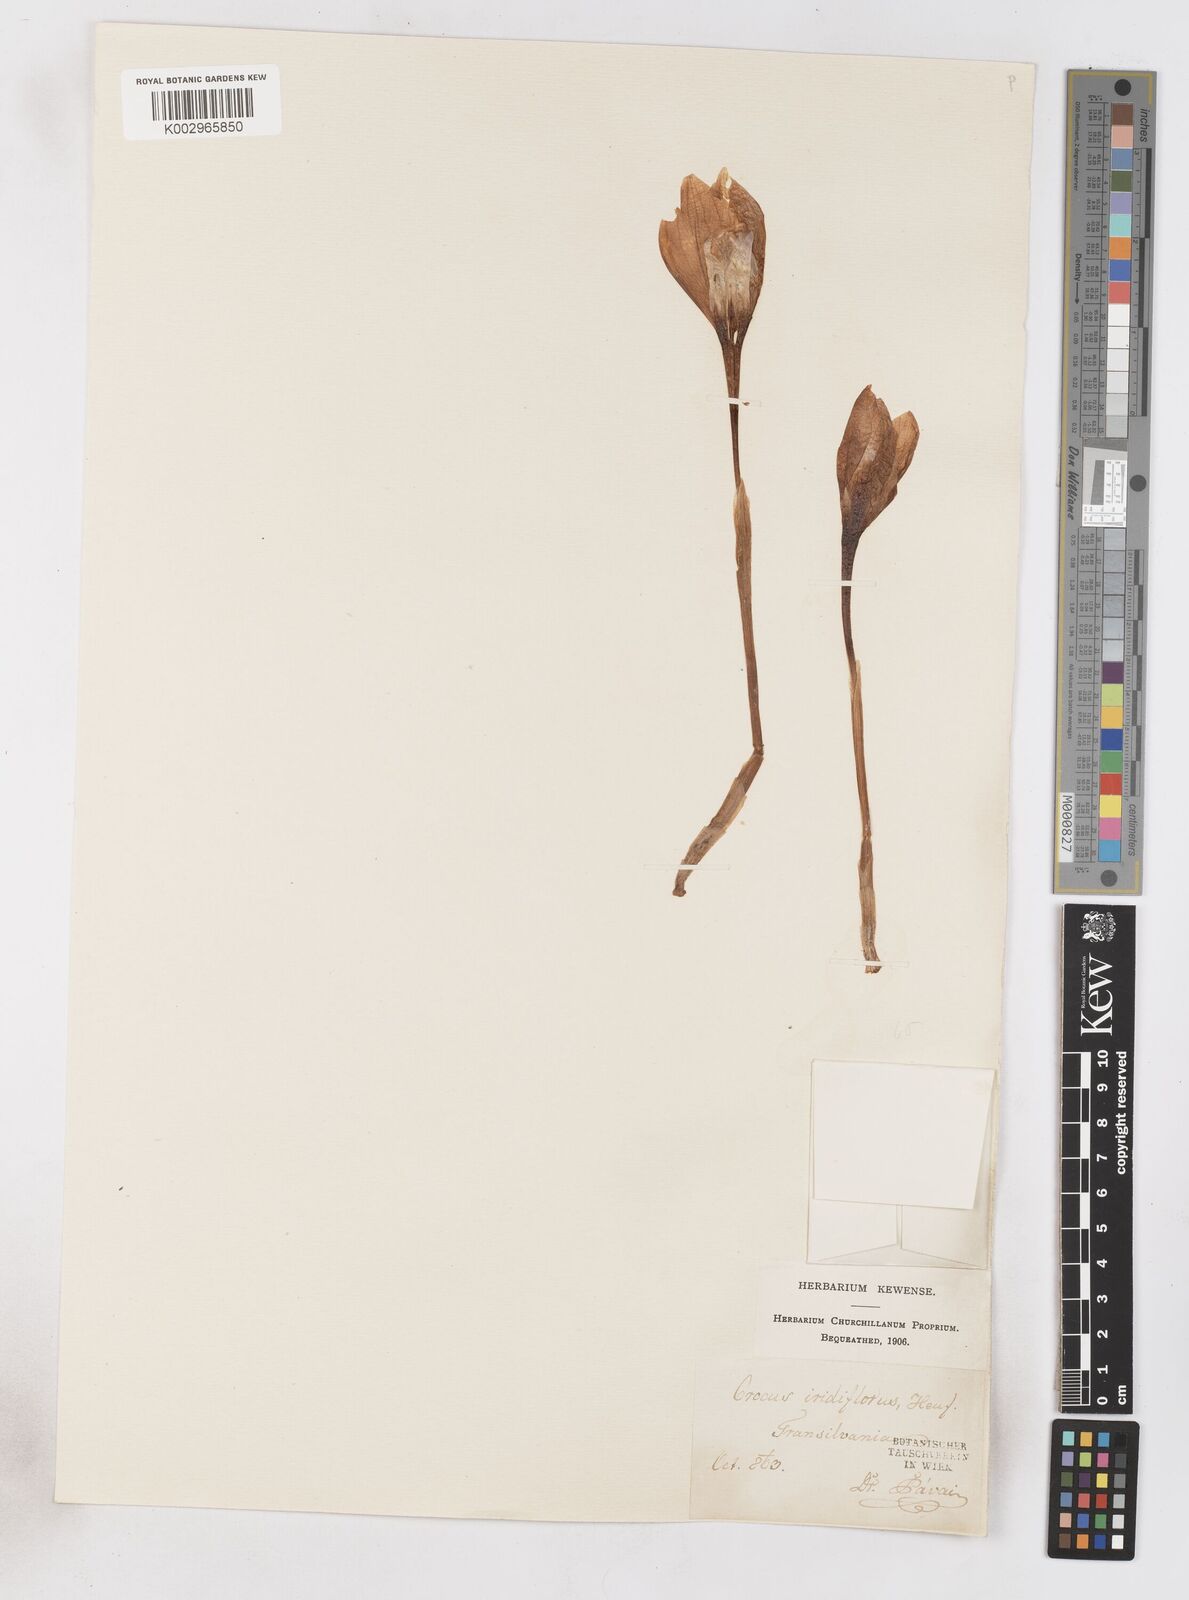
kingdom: Plantae
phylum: Tracheophyta
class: Liliopsida
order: Asparagales
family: Iridaceae
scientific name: Iridaceae
